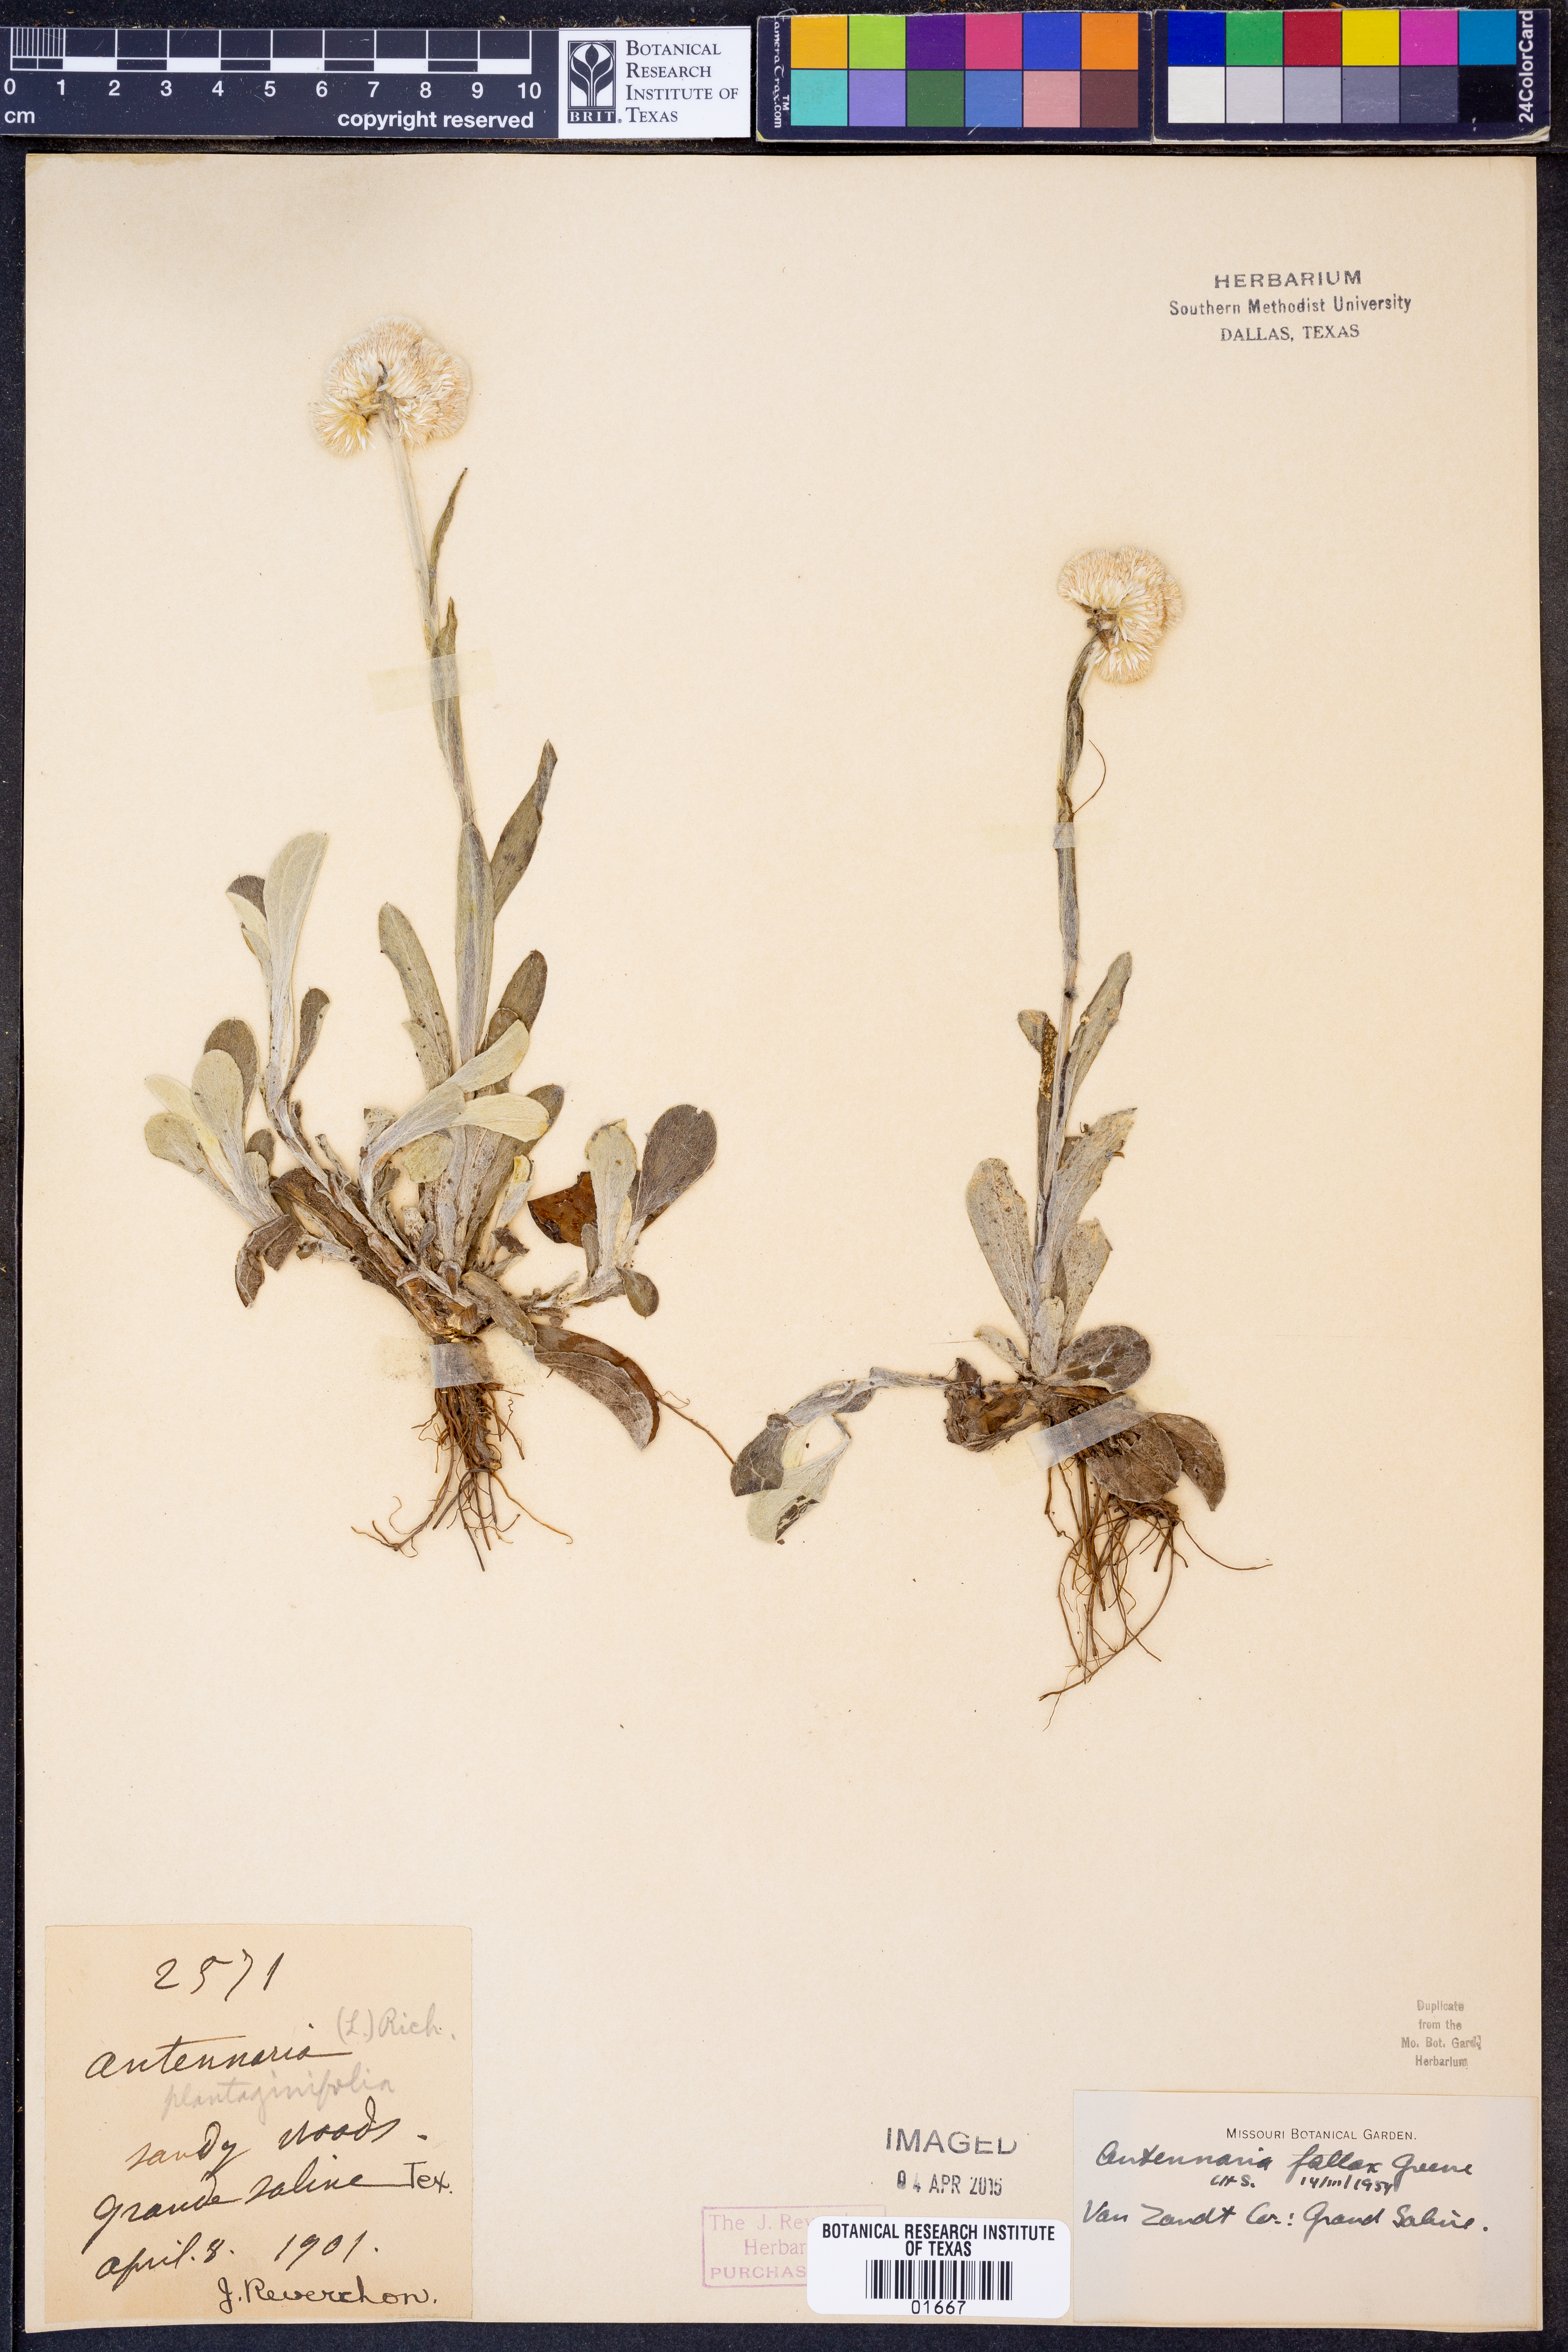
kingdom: Plantae
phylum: Tracheophyta
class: Magnoliopsida
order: Asterales
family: Asteraceae
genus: Antennaria
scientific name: Antennaria parlinii
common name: Parlin's pussytoes
